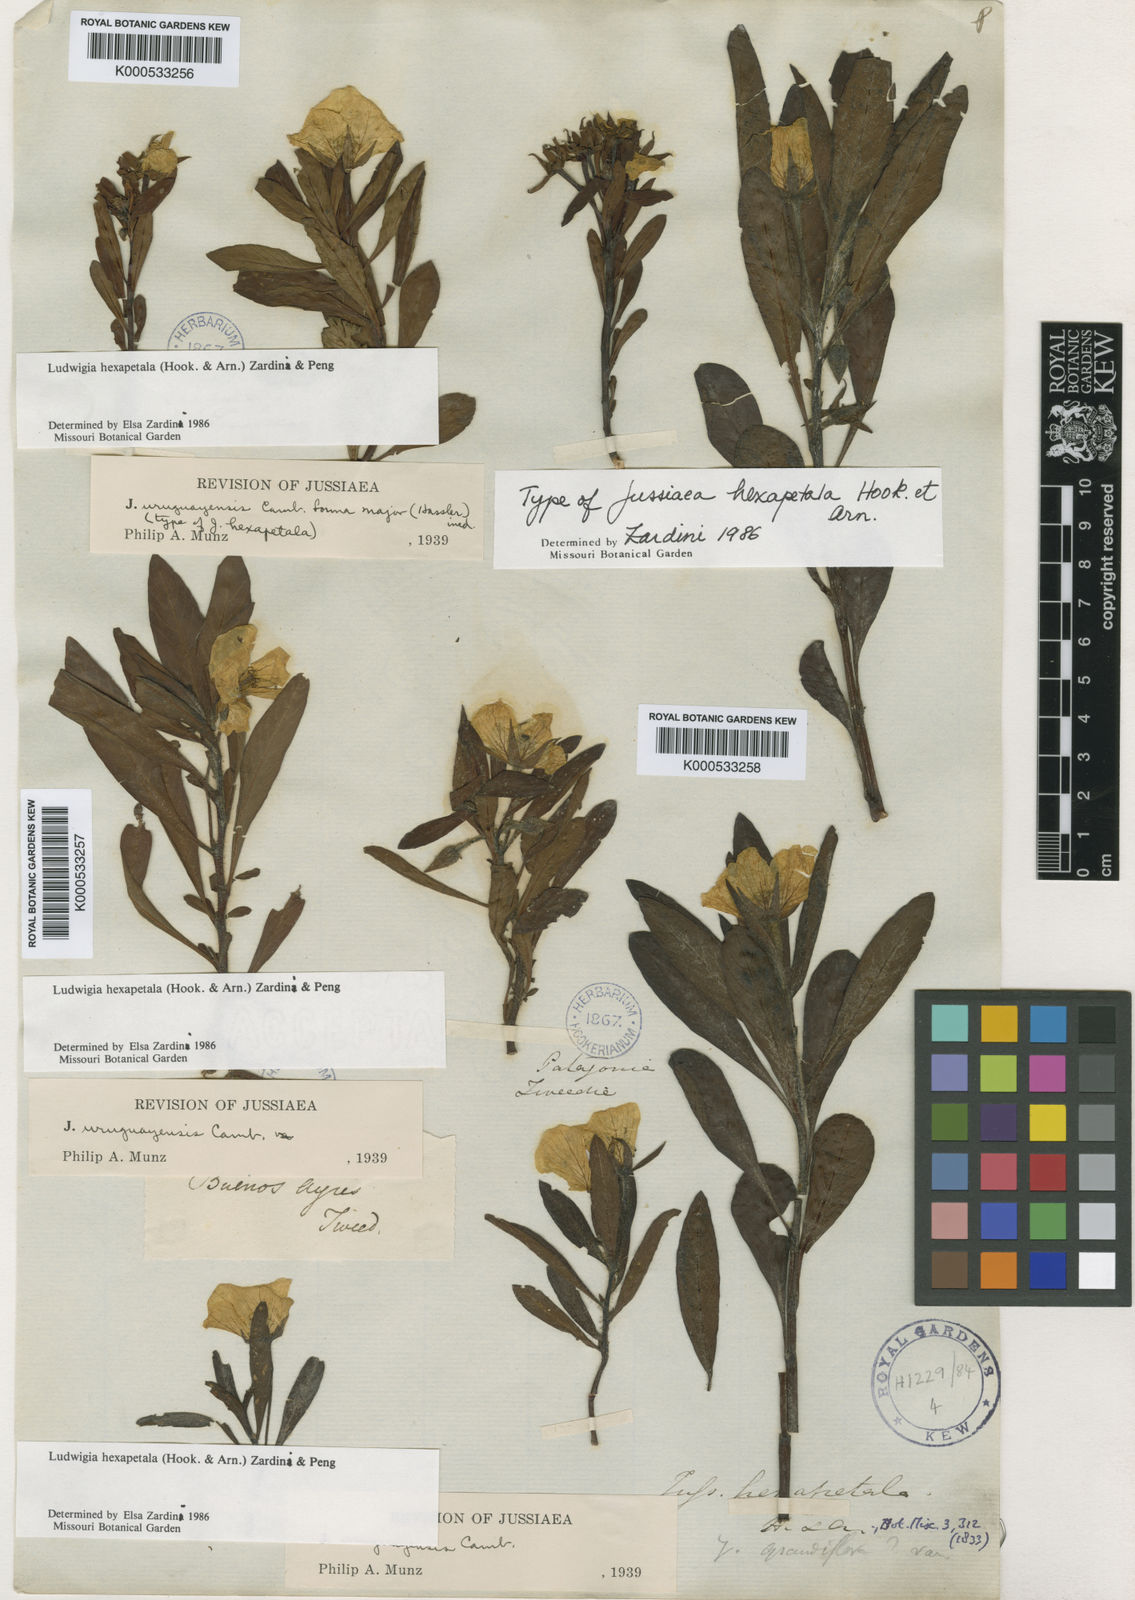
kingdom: Plantae
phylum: Tracheophyta
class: Magnoliopsida
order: Myrtales
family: Onagraceae
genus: Ludwigia
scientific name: Ludwigia
